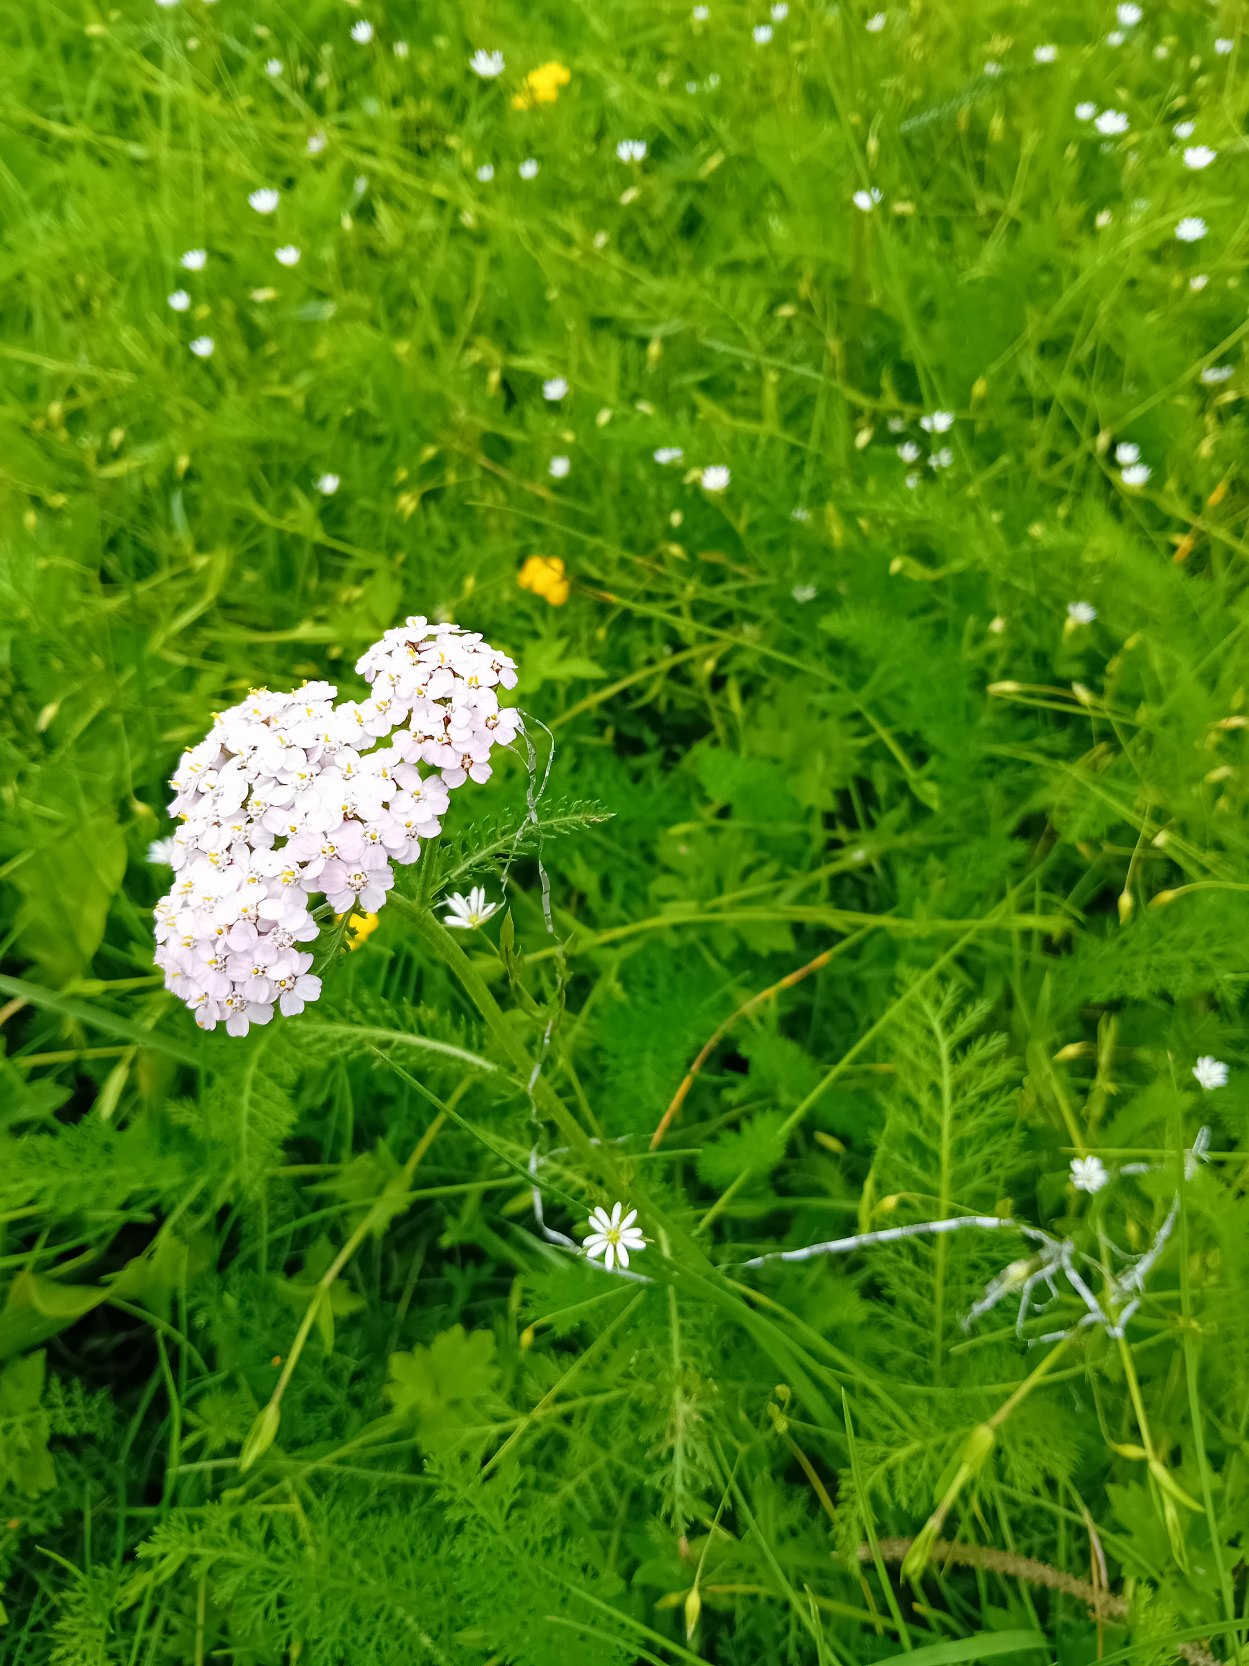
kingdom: Plantae
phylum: Tracheophyta
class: Magnoliopsida
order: Asterales
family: Asteraceae
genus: Achillea
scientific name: Achillea millefolium
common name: Almindelig røllike
